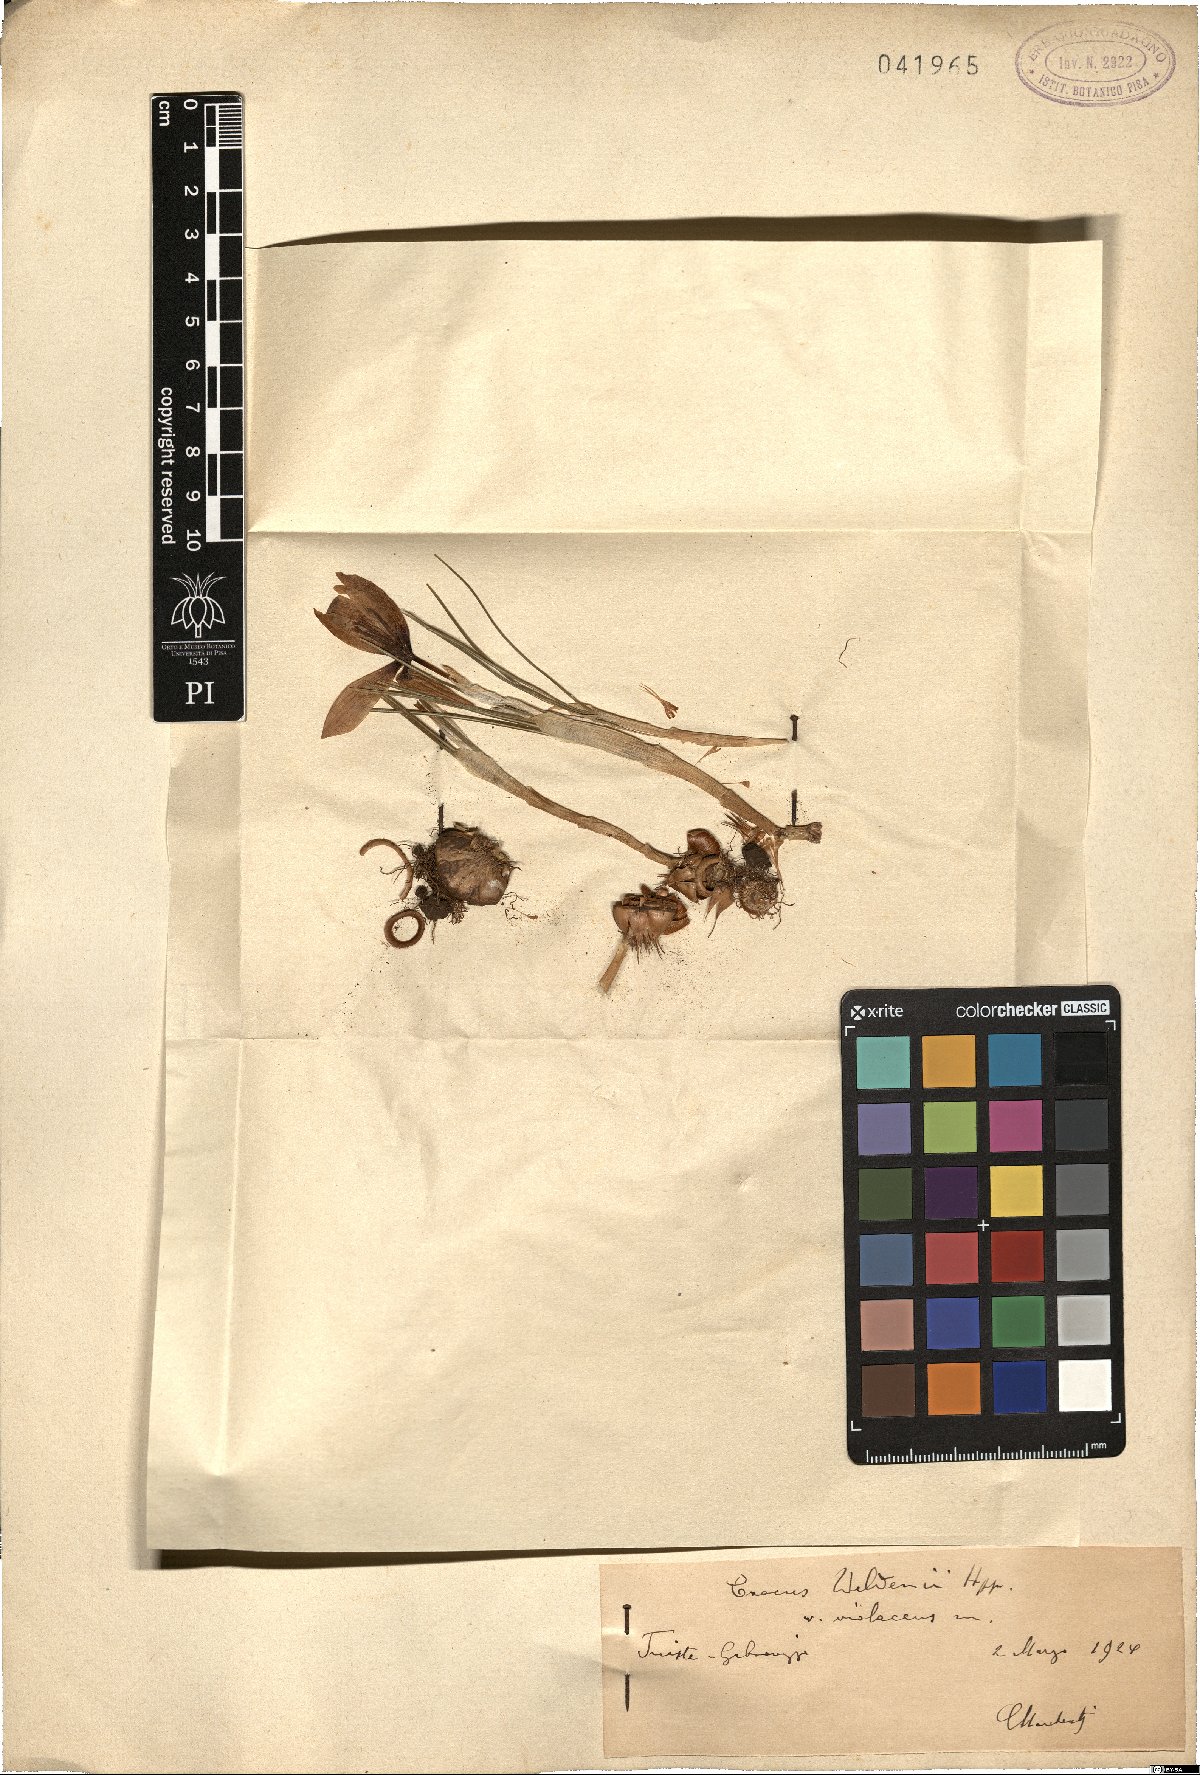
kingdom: Plantae
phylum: Tracheophyta
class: Liliopsida
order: Asparagales
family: Iridaceae
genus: Crocus
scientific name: Crocus weldenii
